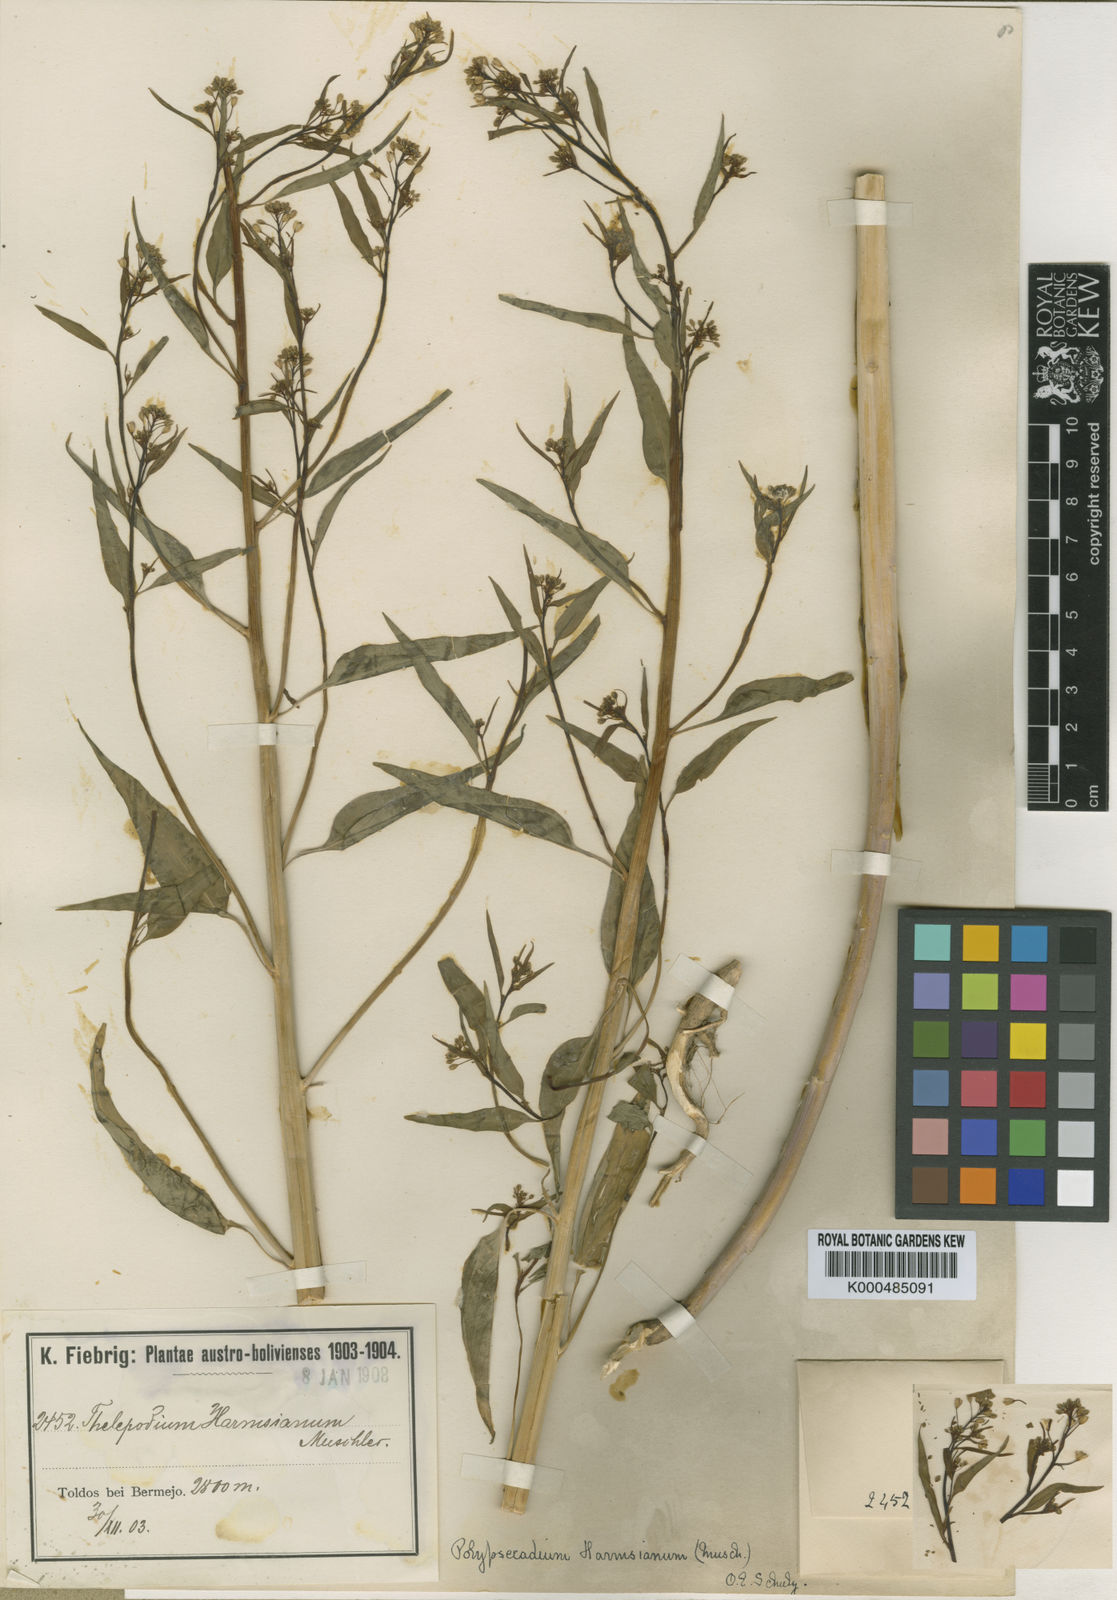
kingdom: Plantae
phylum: Tracheophyta
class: Magnoliopsida
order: Brassicales
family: Brassicaceae
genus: Polypsecadium
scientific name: Polypsecadium harmsianum
